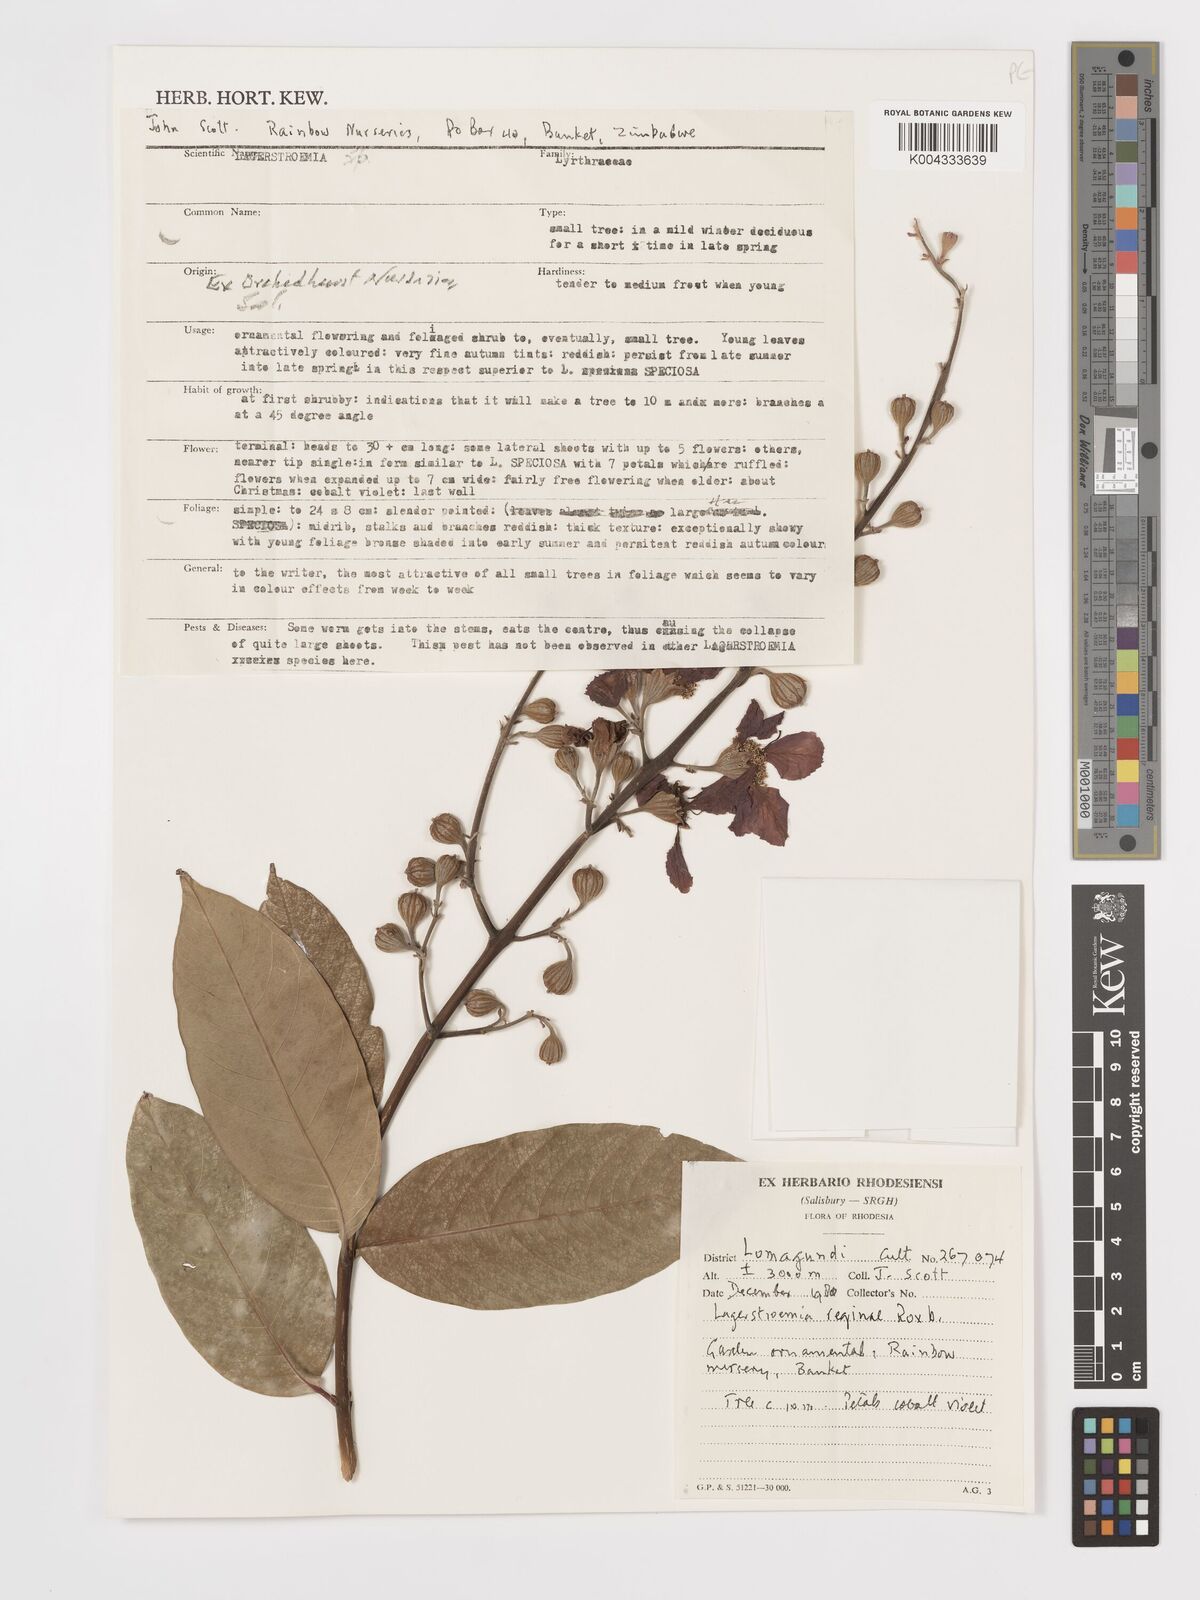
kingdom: Plantae
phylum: Tracheophyta
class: Magnoliopsida
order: Myrtales
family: Lythraceae
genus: Lagerstroemia
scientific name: Lagerstroemia speciosa
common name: Queen's crape-myrtle
